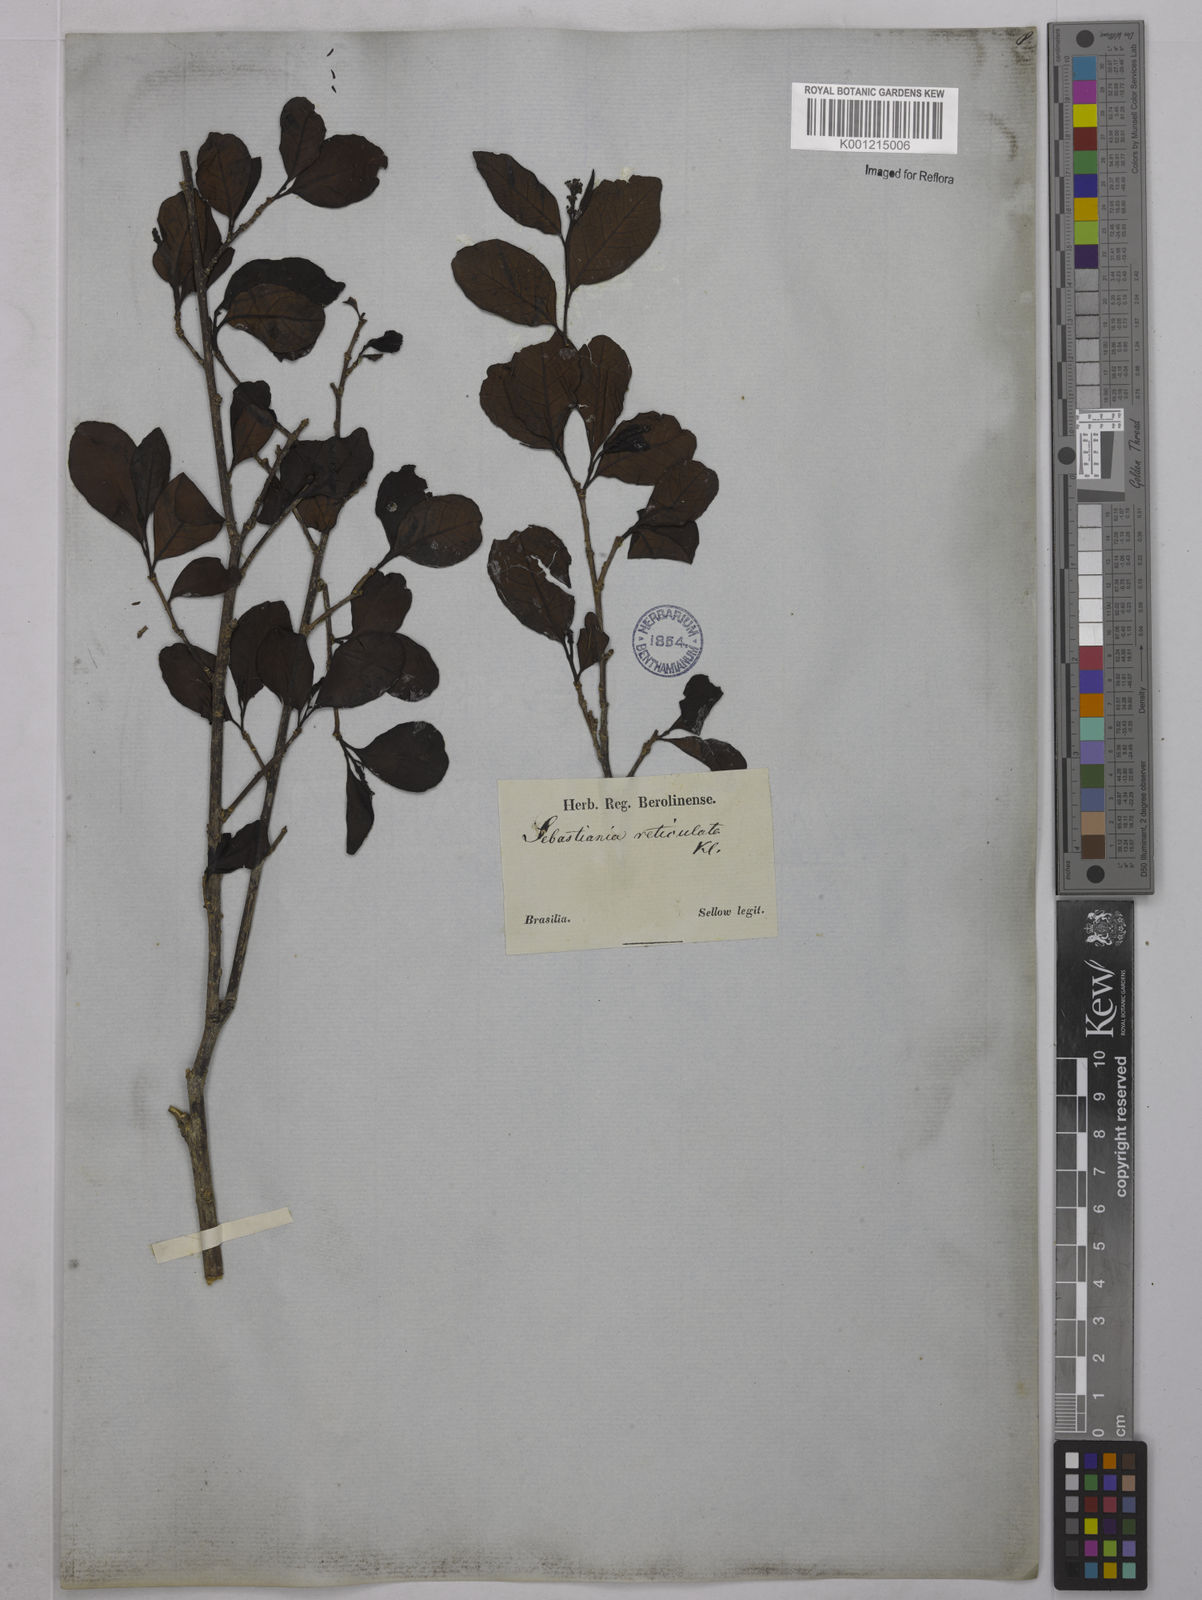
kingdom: Plantae
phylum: Tracheophyta
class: Magnoliopsida
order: Malpighiales
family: Euphorbiaceae
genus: Sebastiania
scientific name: Sebastiania brasiliensis
